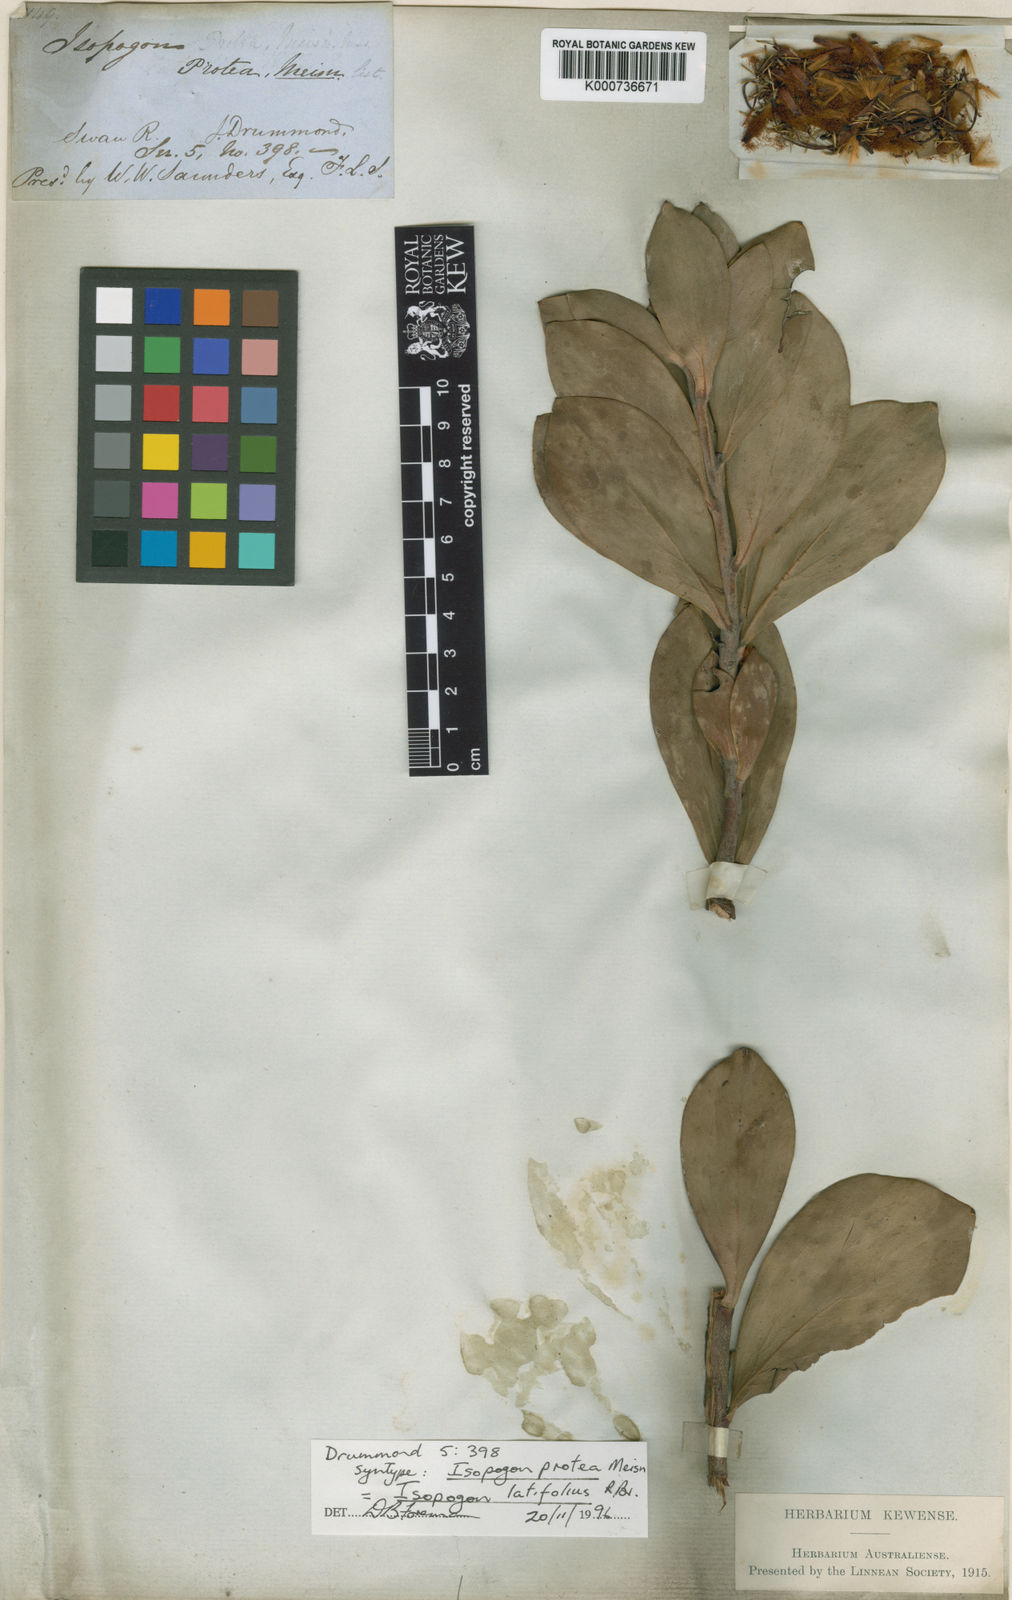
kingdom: Plantae
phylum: Tracheophyta
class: Magnoliopsida
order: Proteales
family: Proteaceae
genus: Isopogon
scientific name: Isopogon latifolius
